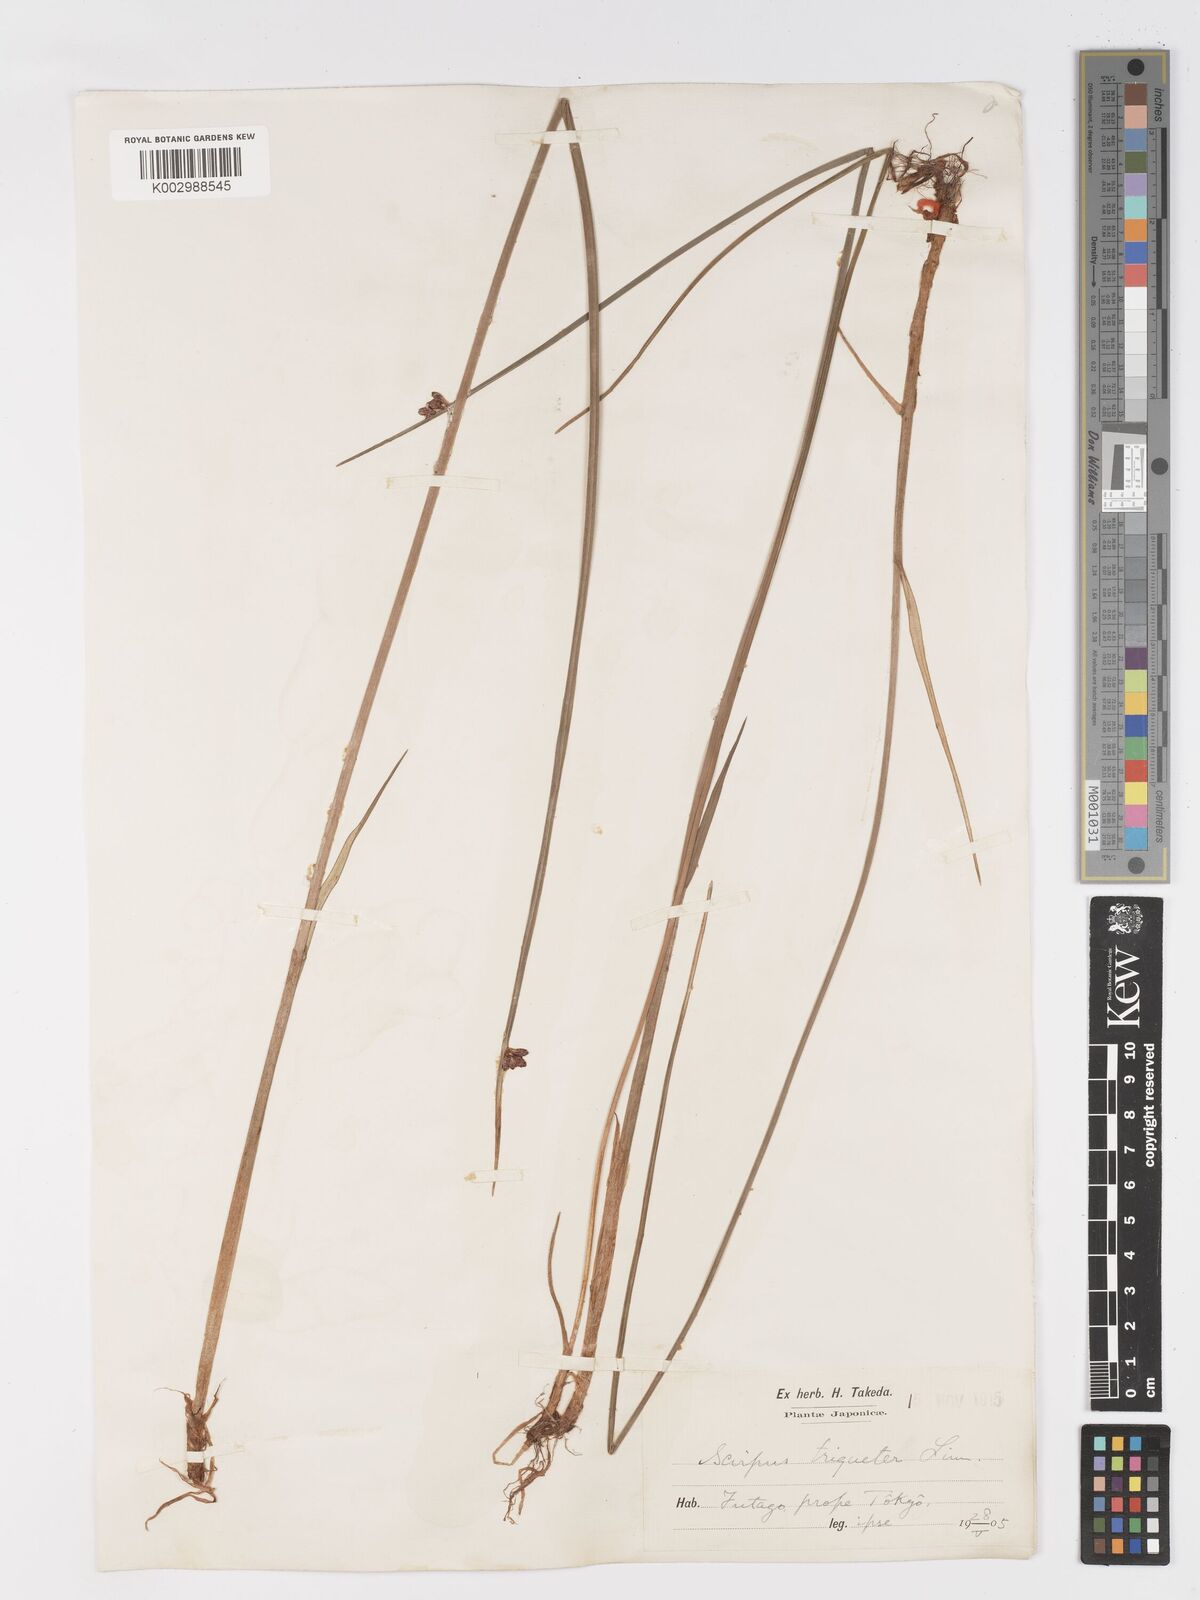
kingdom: Plantae
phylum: Tracheophyta
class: Liliopsida
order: Poales
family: Cyperaceae
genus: Schoenoplectus
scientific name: Schoenoplectus triqueter
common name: Triangular club-rush
